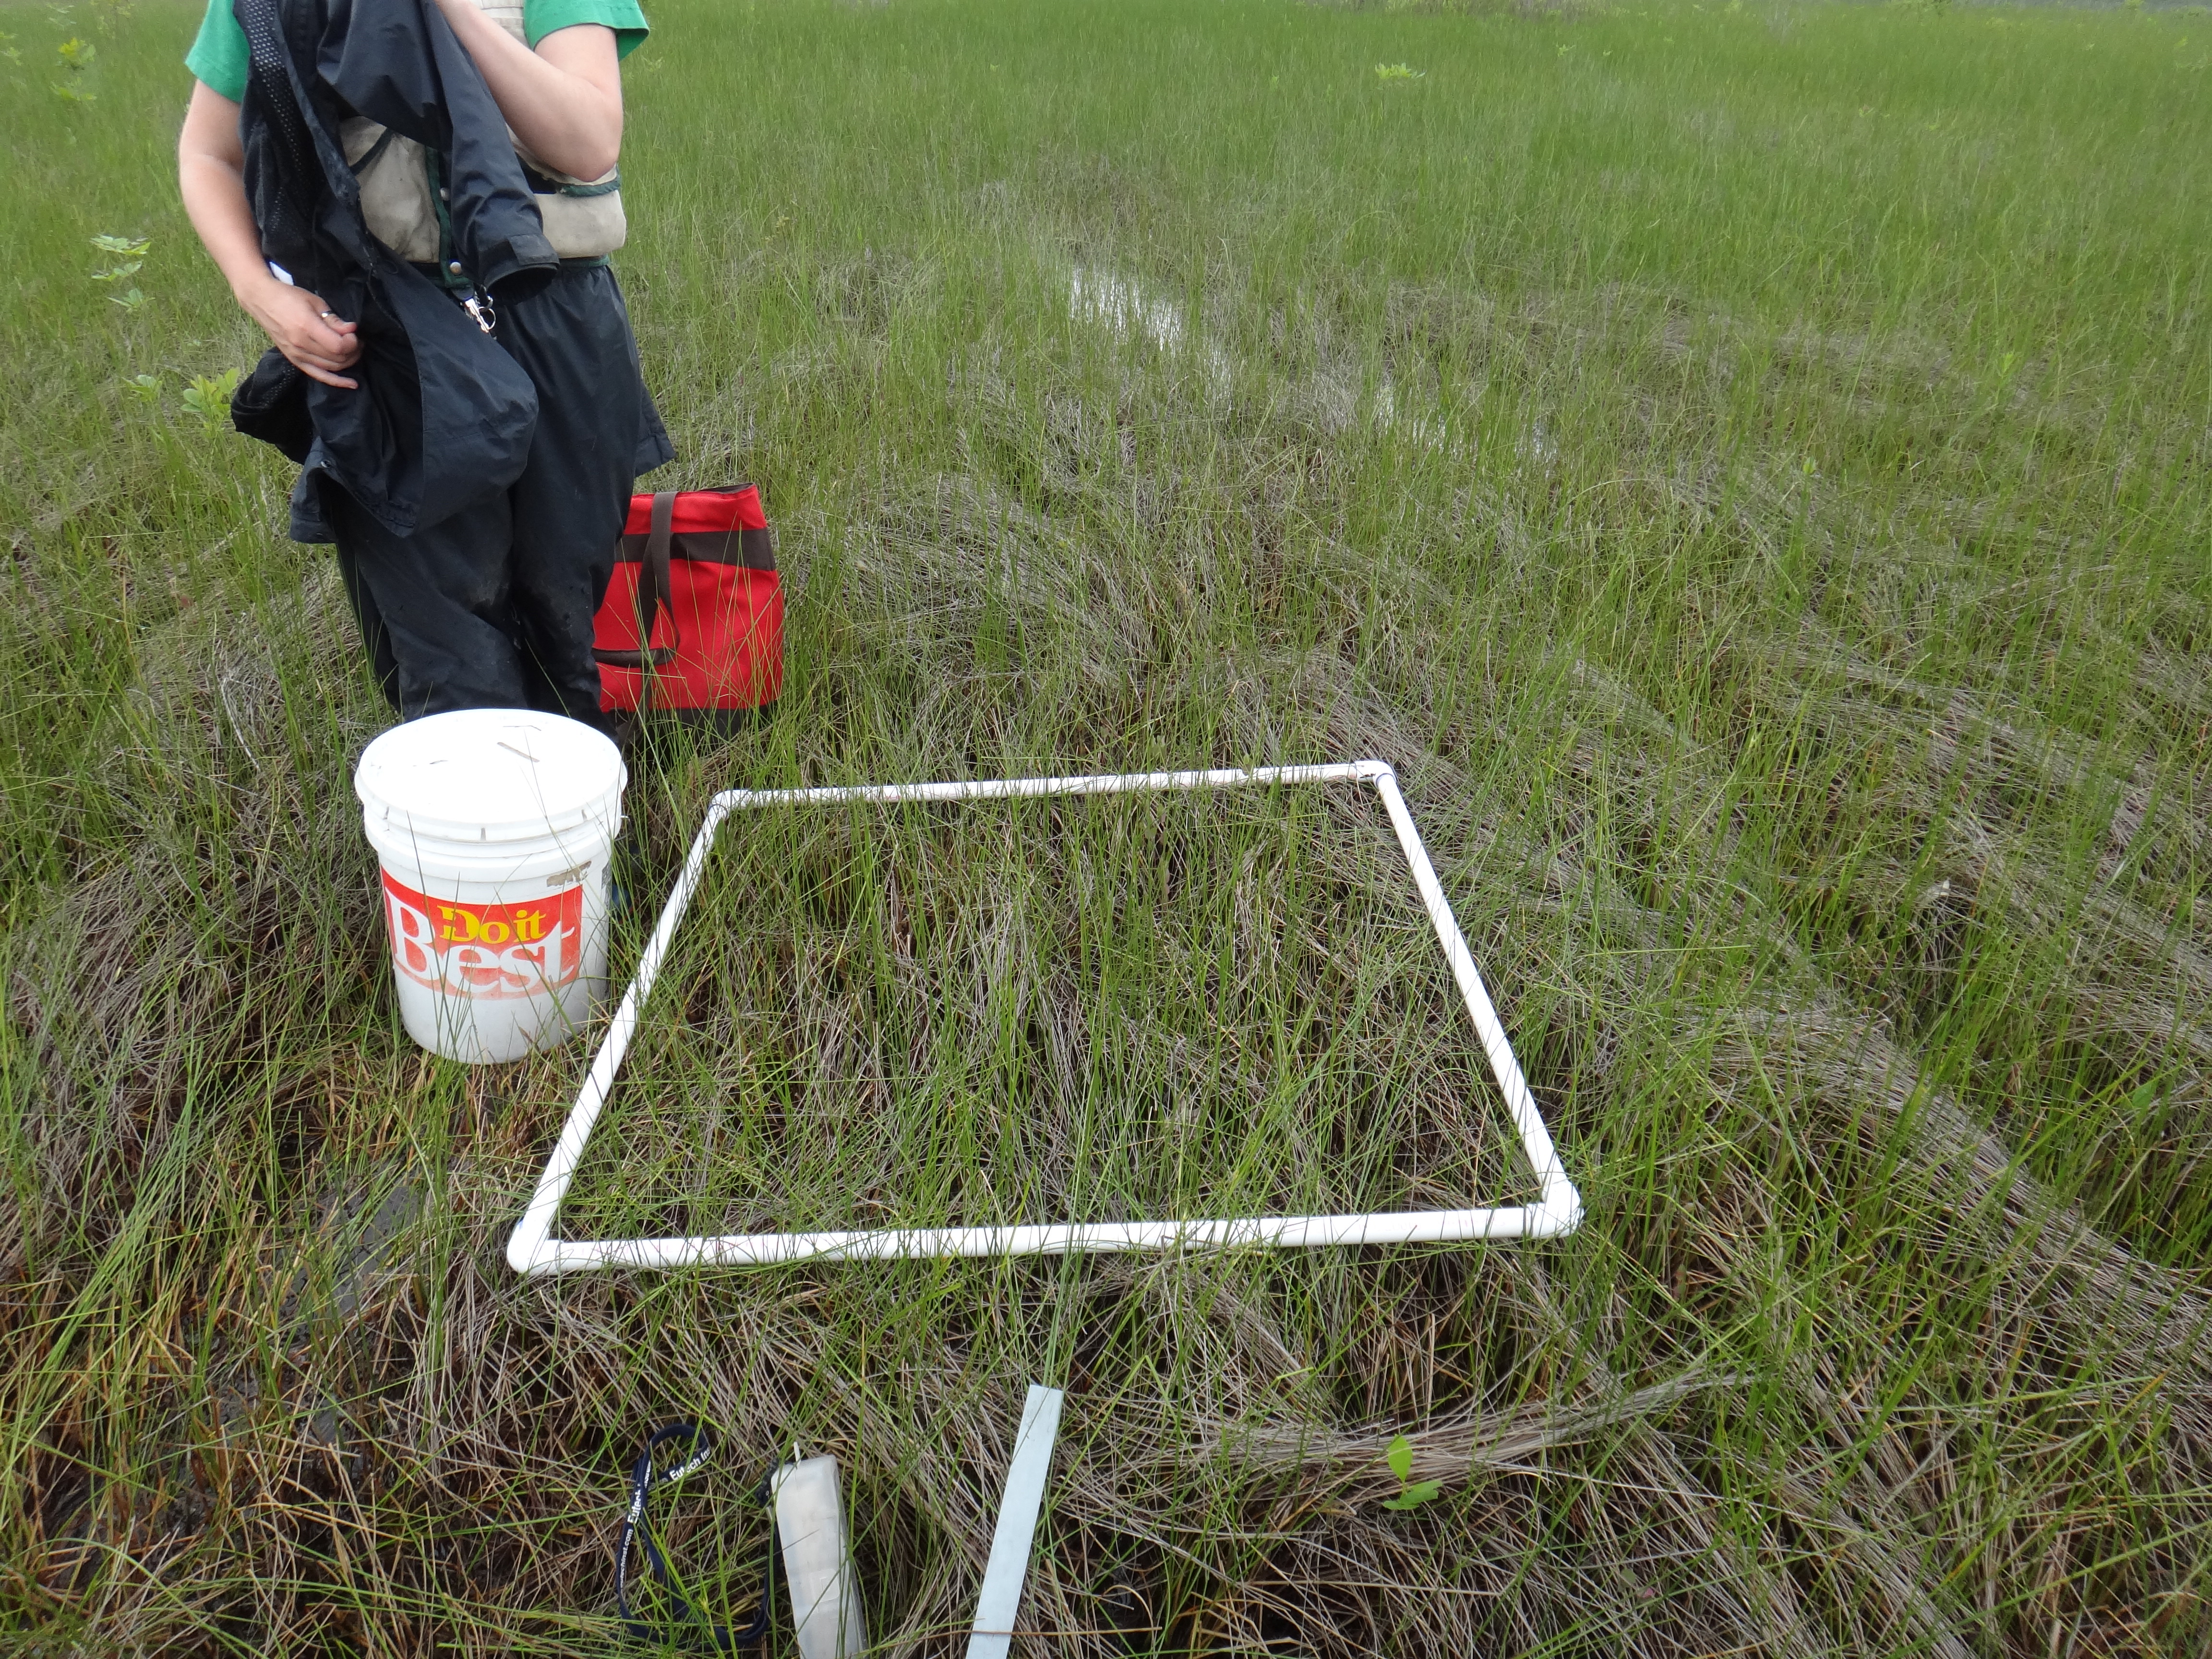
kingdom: Plantae
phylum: Tracheophyta
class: Magnoliopsida
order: Dipsacales
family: Viburnaceae
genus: Sambucus
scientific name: Sambucus canadensis
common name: American elder
